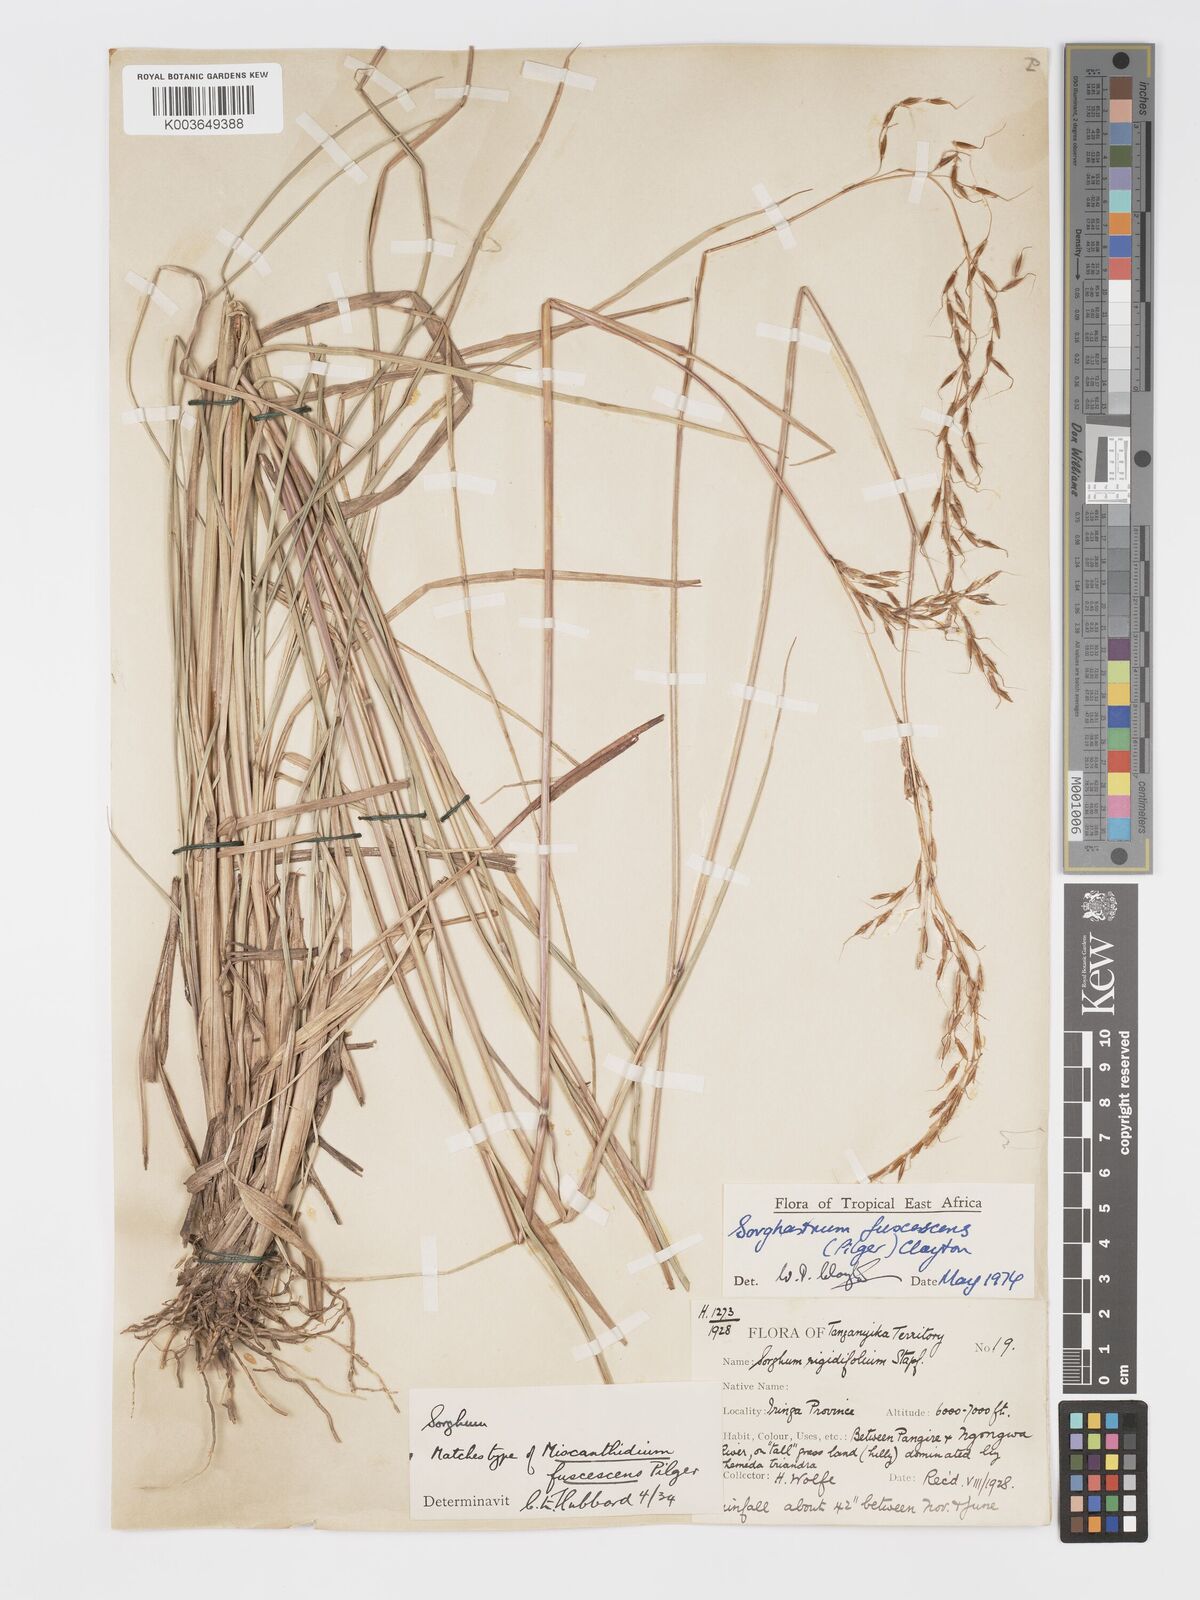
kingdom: Plantae
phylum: Tracheophyta
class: Liliopsida
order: Poales
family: Poaceae
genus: Sorghastrum
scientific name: Sorghastrum fuscescens
